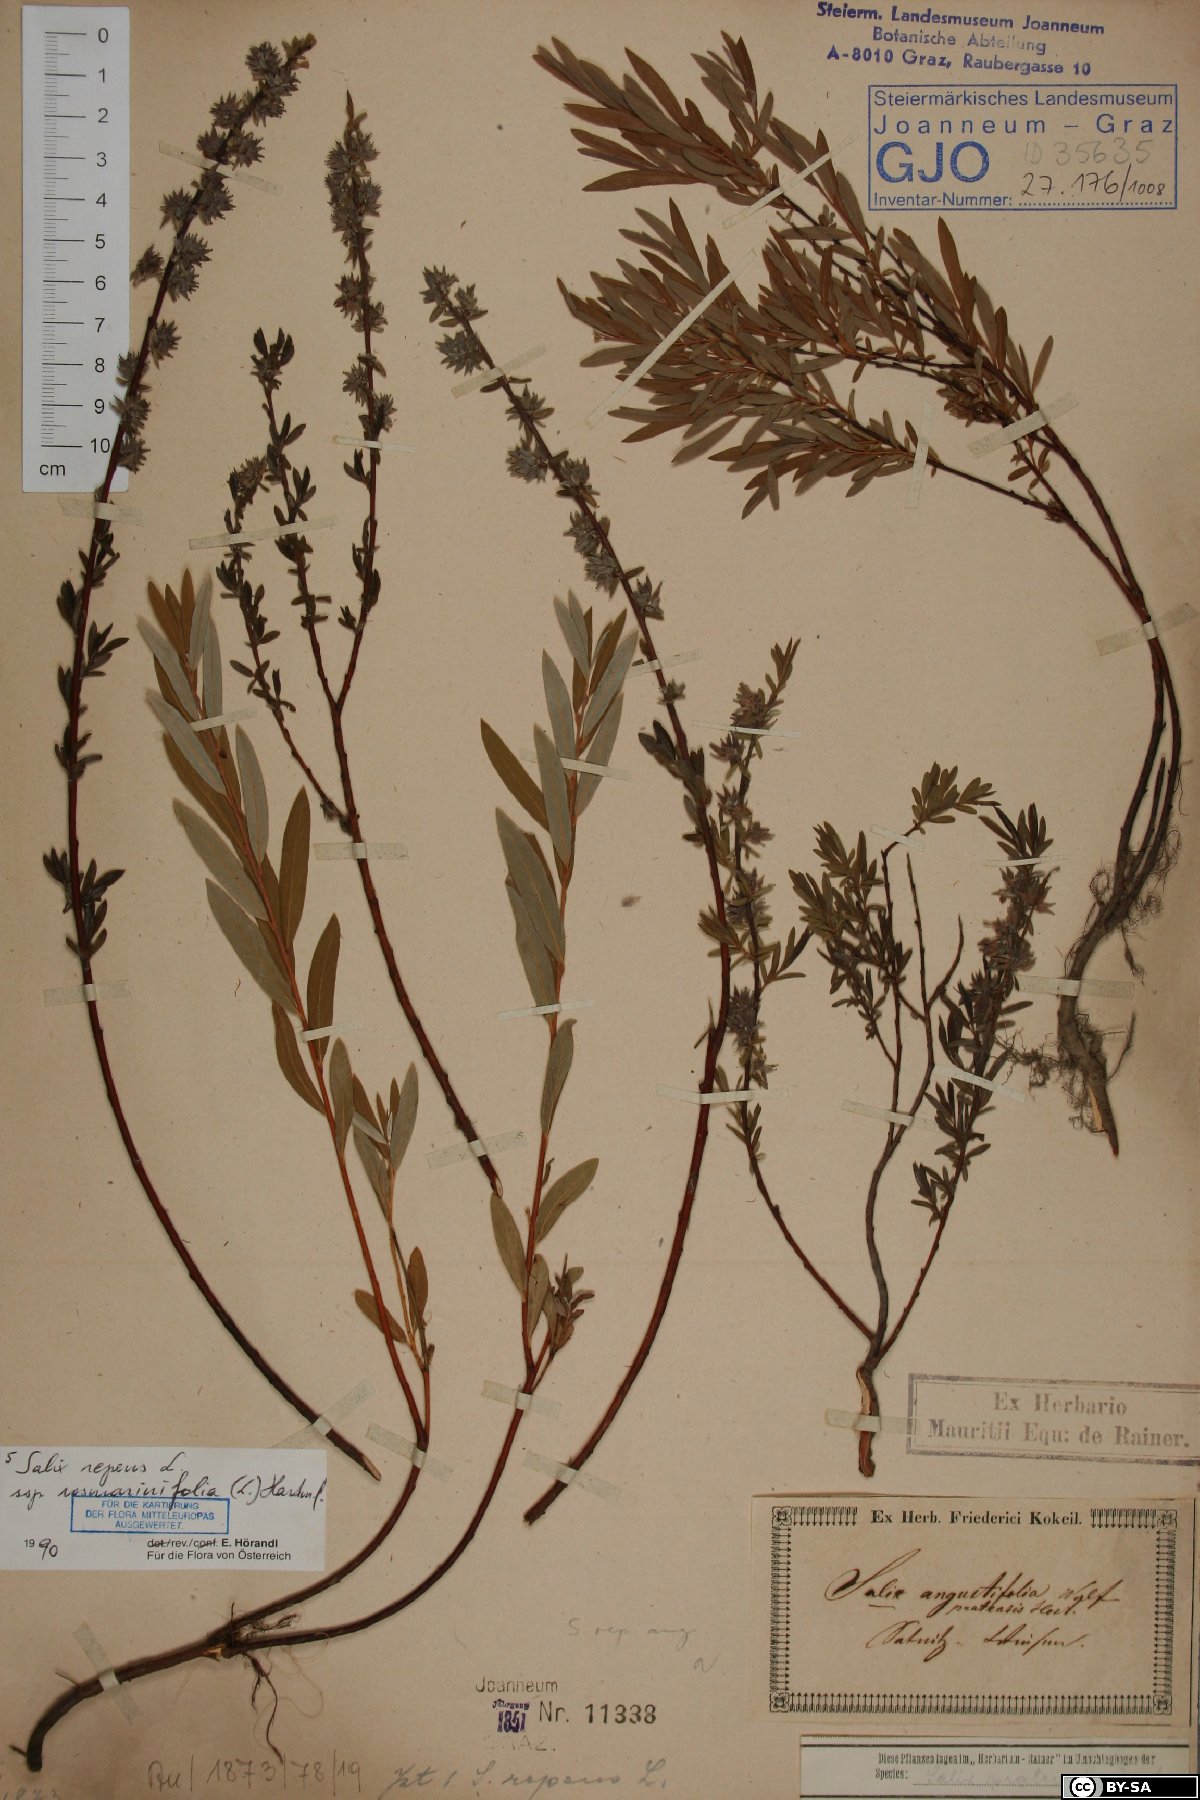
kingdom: Plantae
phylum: Tracheophyta
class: Magnoliopsida
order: Malpighiales
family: Salicaceae
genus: Salix
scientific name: Salix repens
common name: Creeping willow
